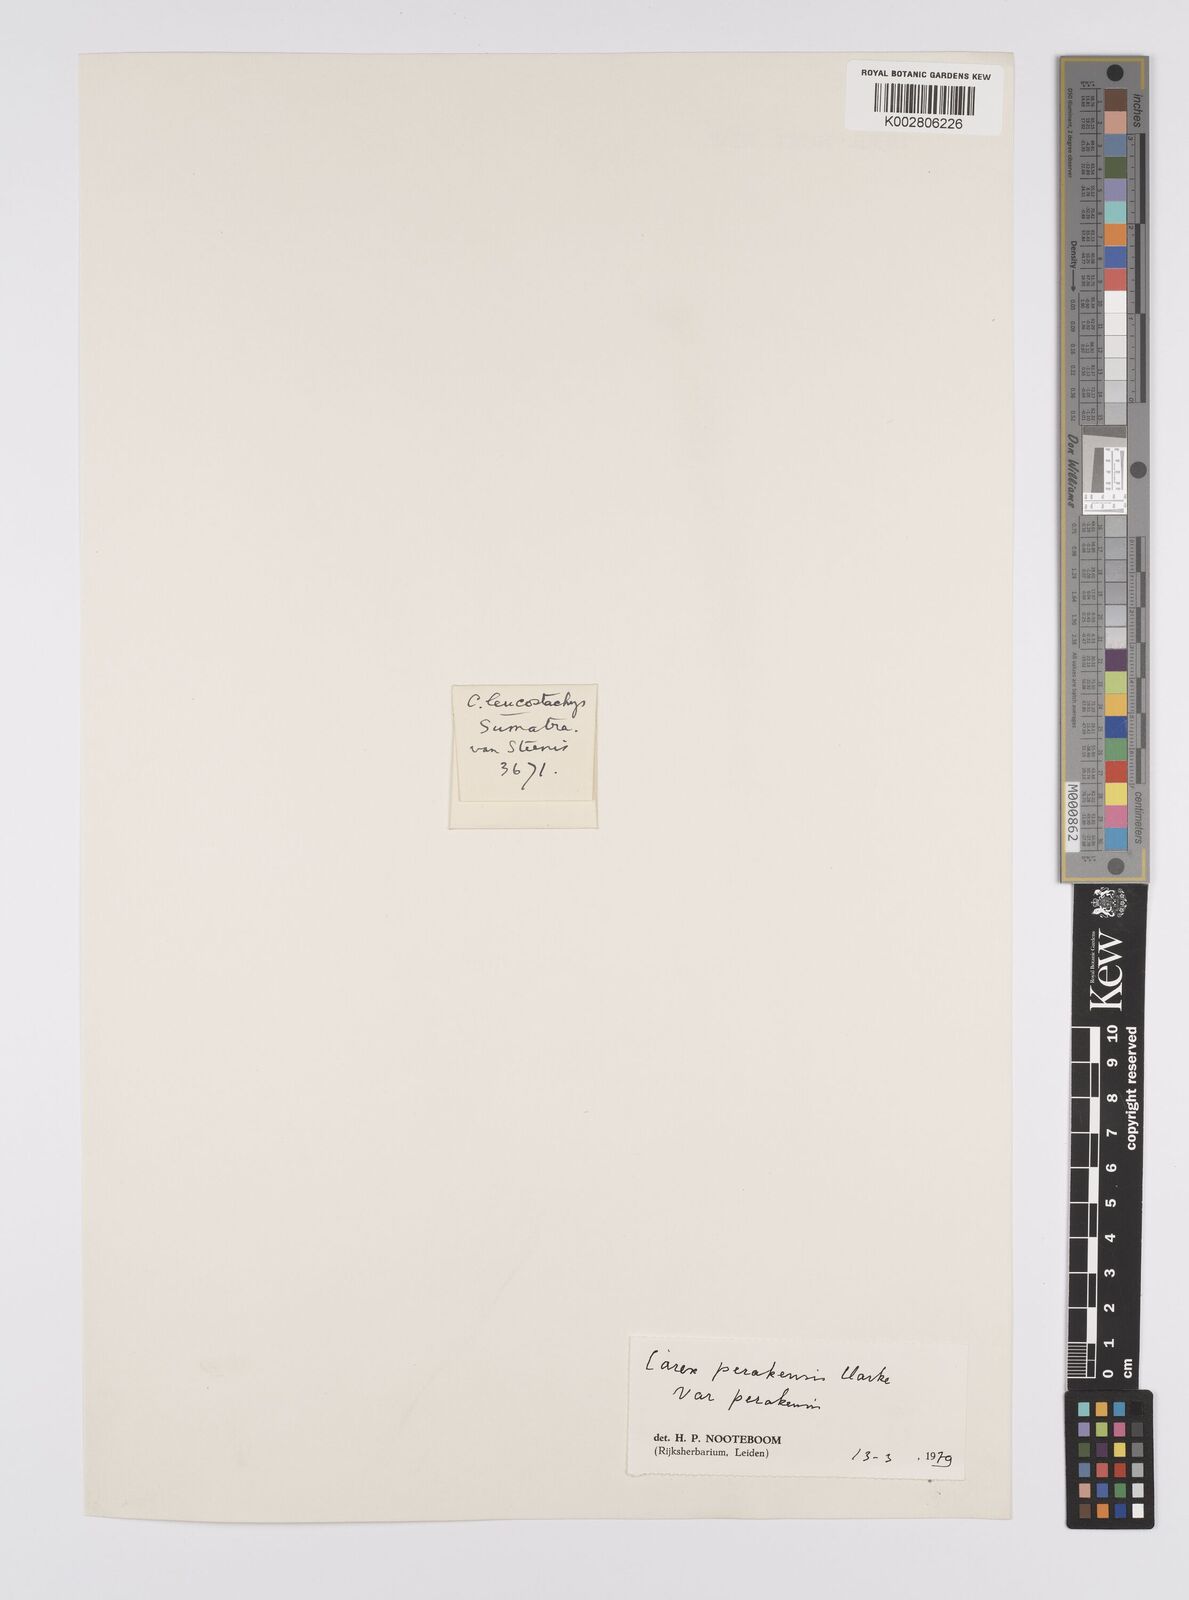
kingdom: Plantae
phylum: Tracheophyta
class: Liliopsida
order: Poales
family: Cyperaceae
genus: Carex
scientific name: Carex perakensis
